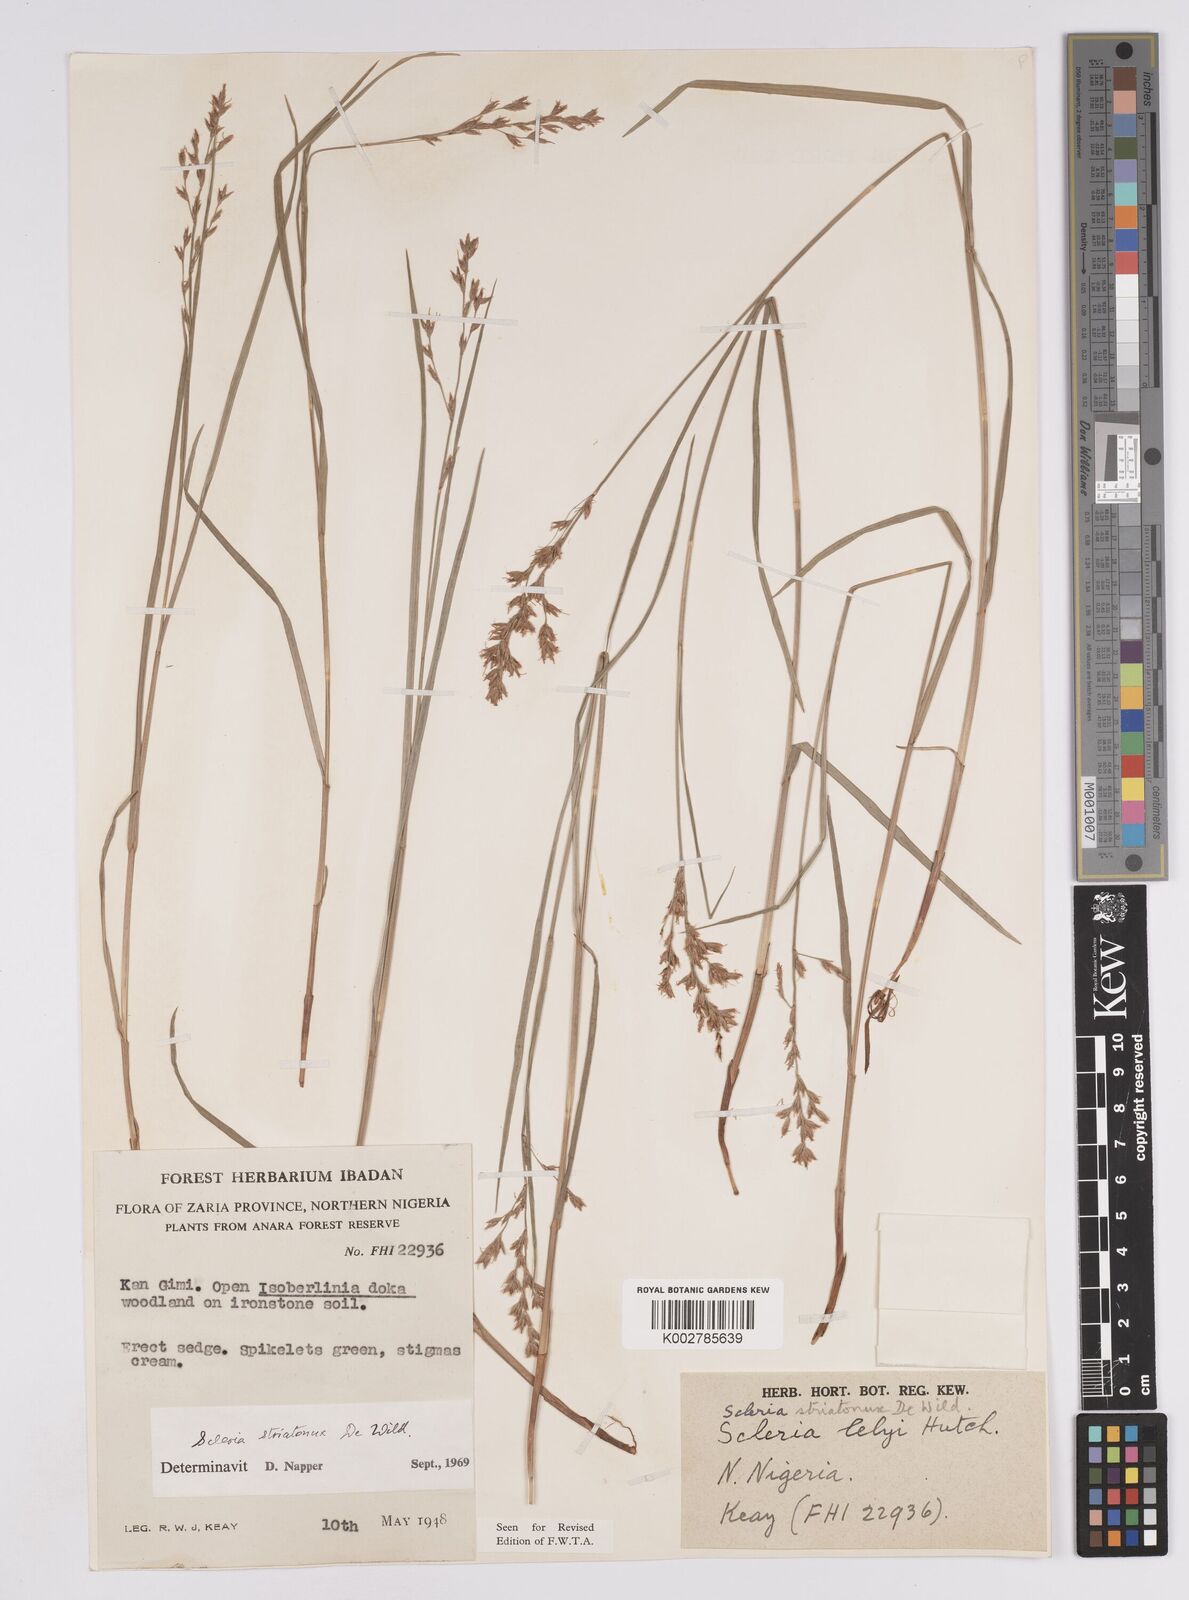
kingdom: Plantae
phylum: Tracheophyta
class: Liliopsida
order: Poales
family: Cyperaceae
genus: Scleria
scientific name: Scleria woodii
